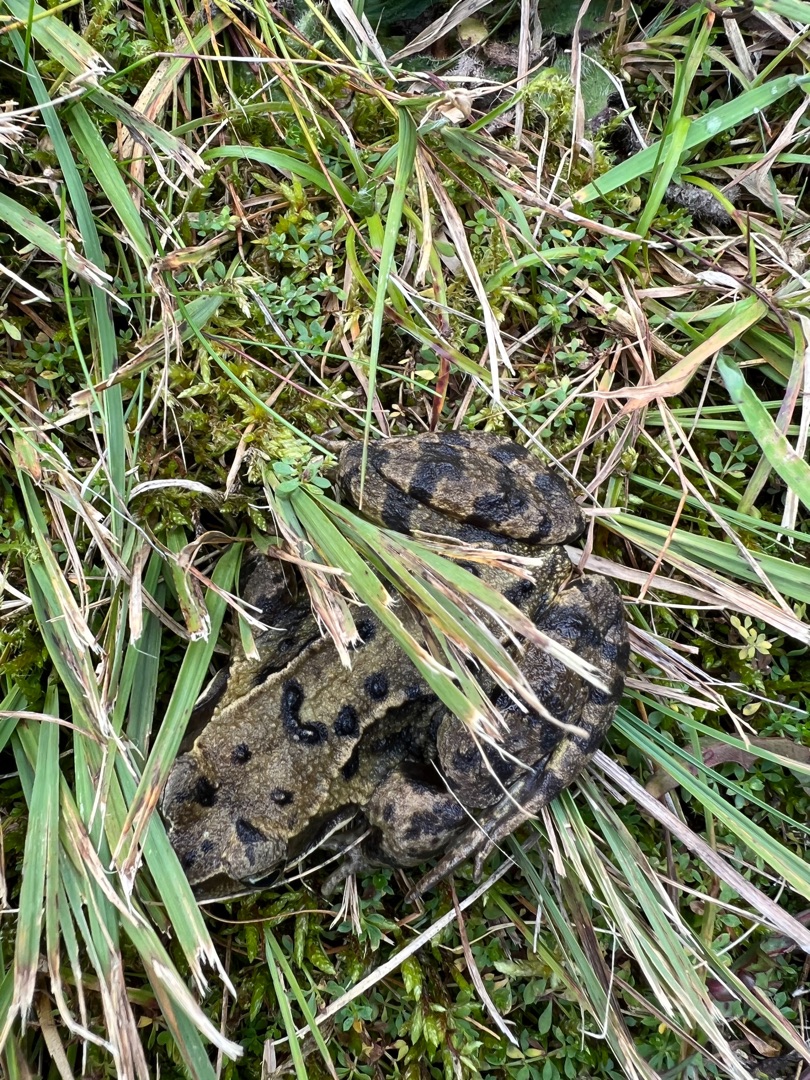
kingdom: Animalia
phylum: Chordata
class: Amphibia
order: Anura
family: Ranidae
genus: Rana
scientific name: Rana temporaria
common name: Butsnudet frø
